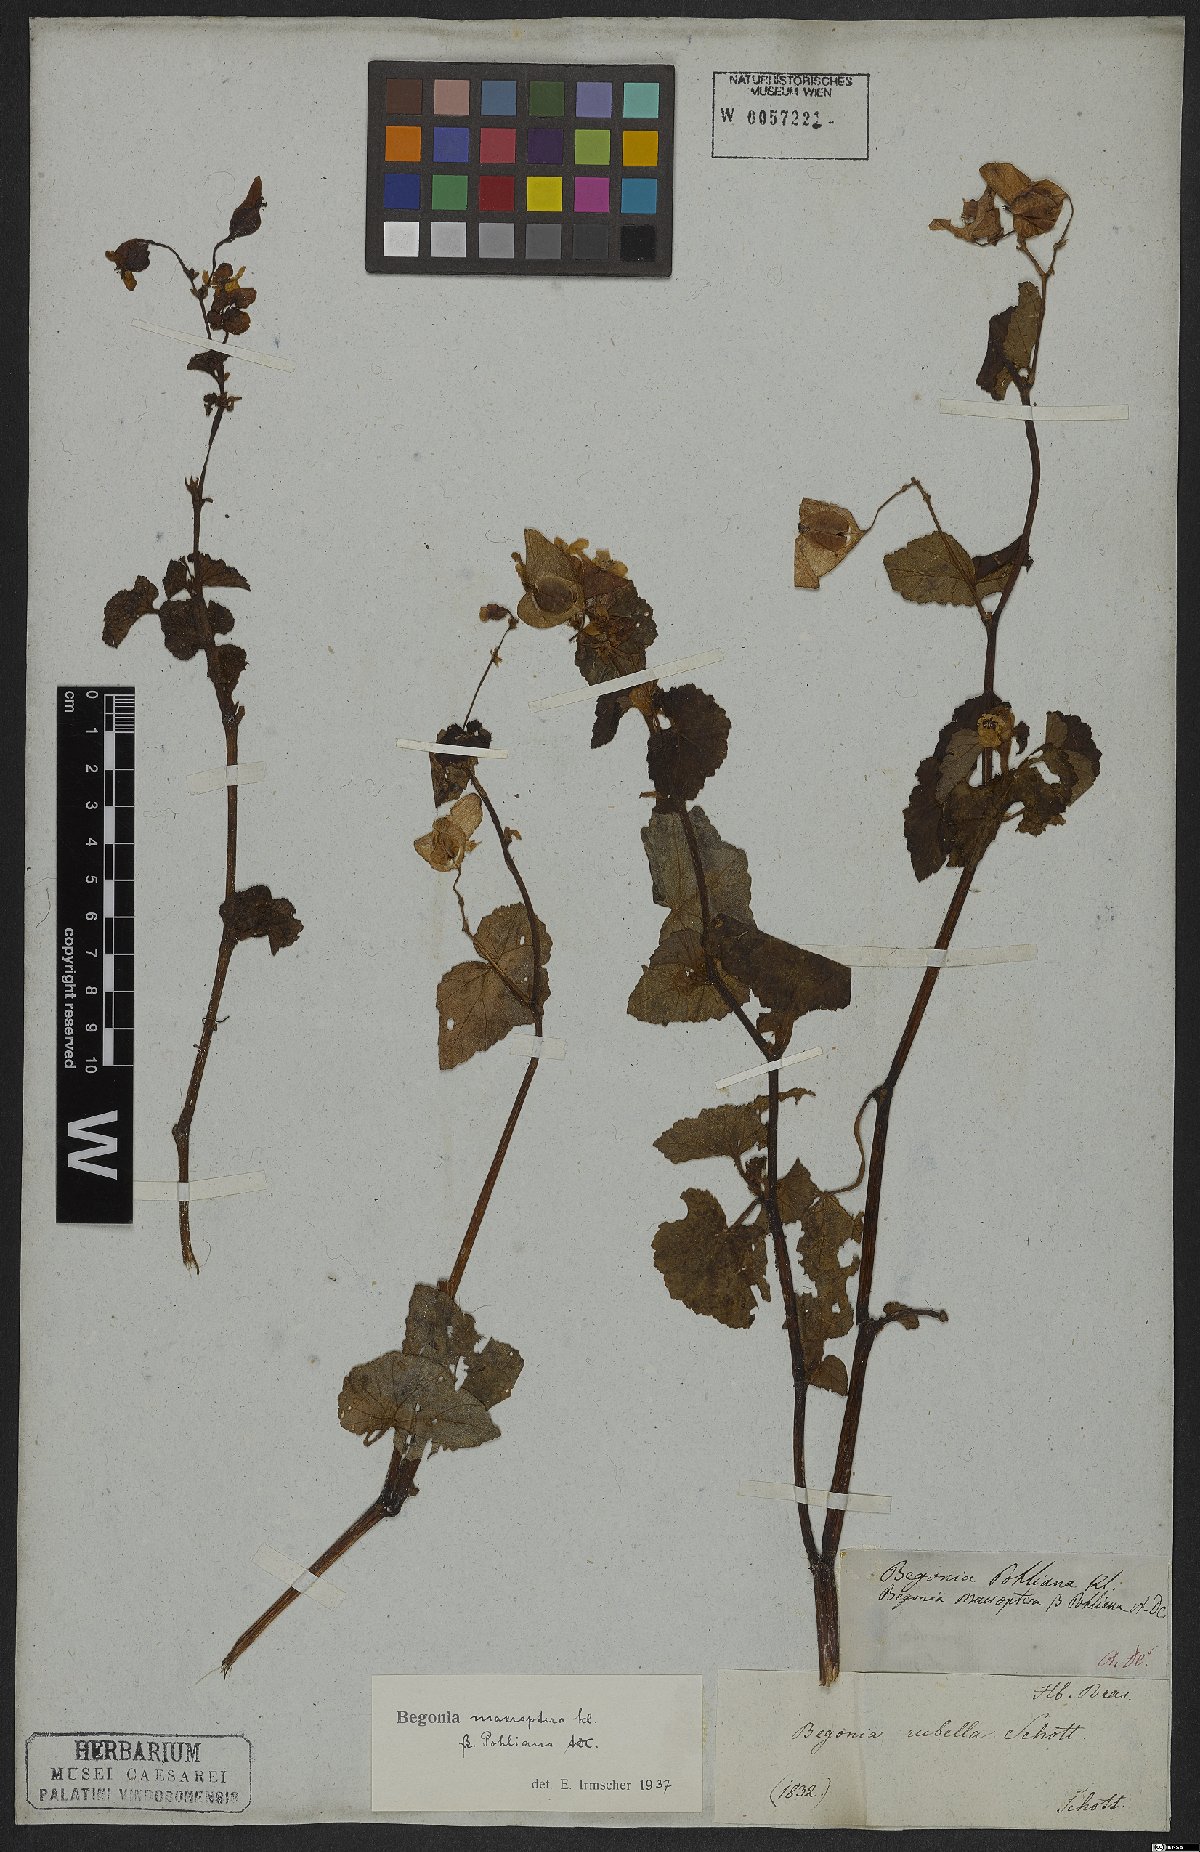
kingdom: Plantae
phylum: Tracheophyta
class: Magnoliopsida
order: Cucurbitales
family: Begoniaceae
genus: Begonia
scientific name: Begonia fischeri
